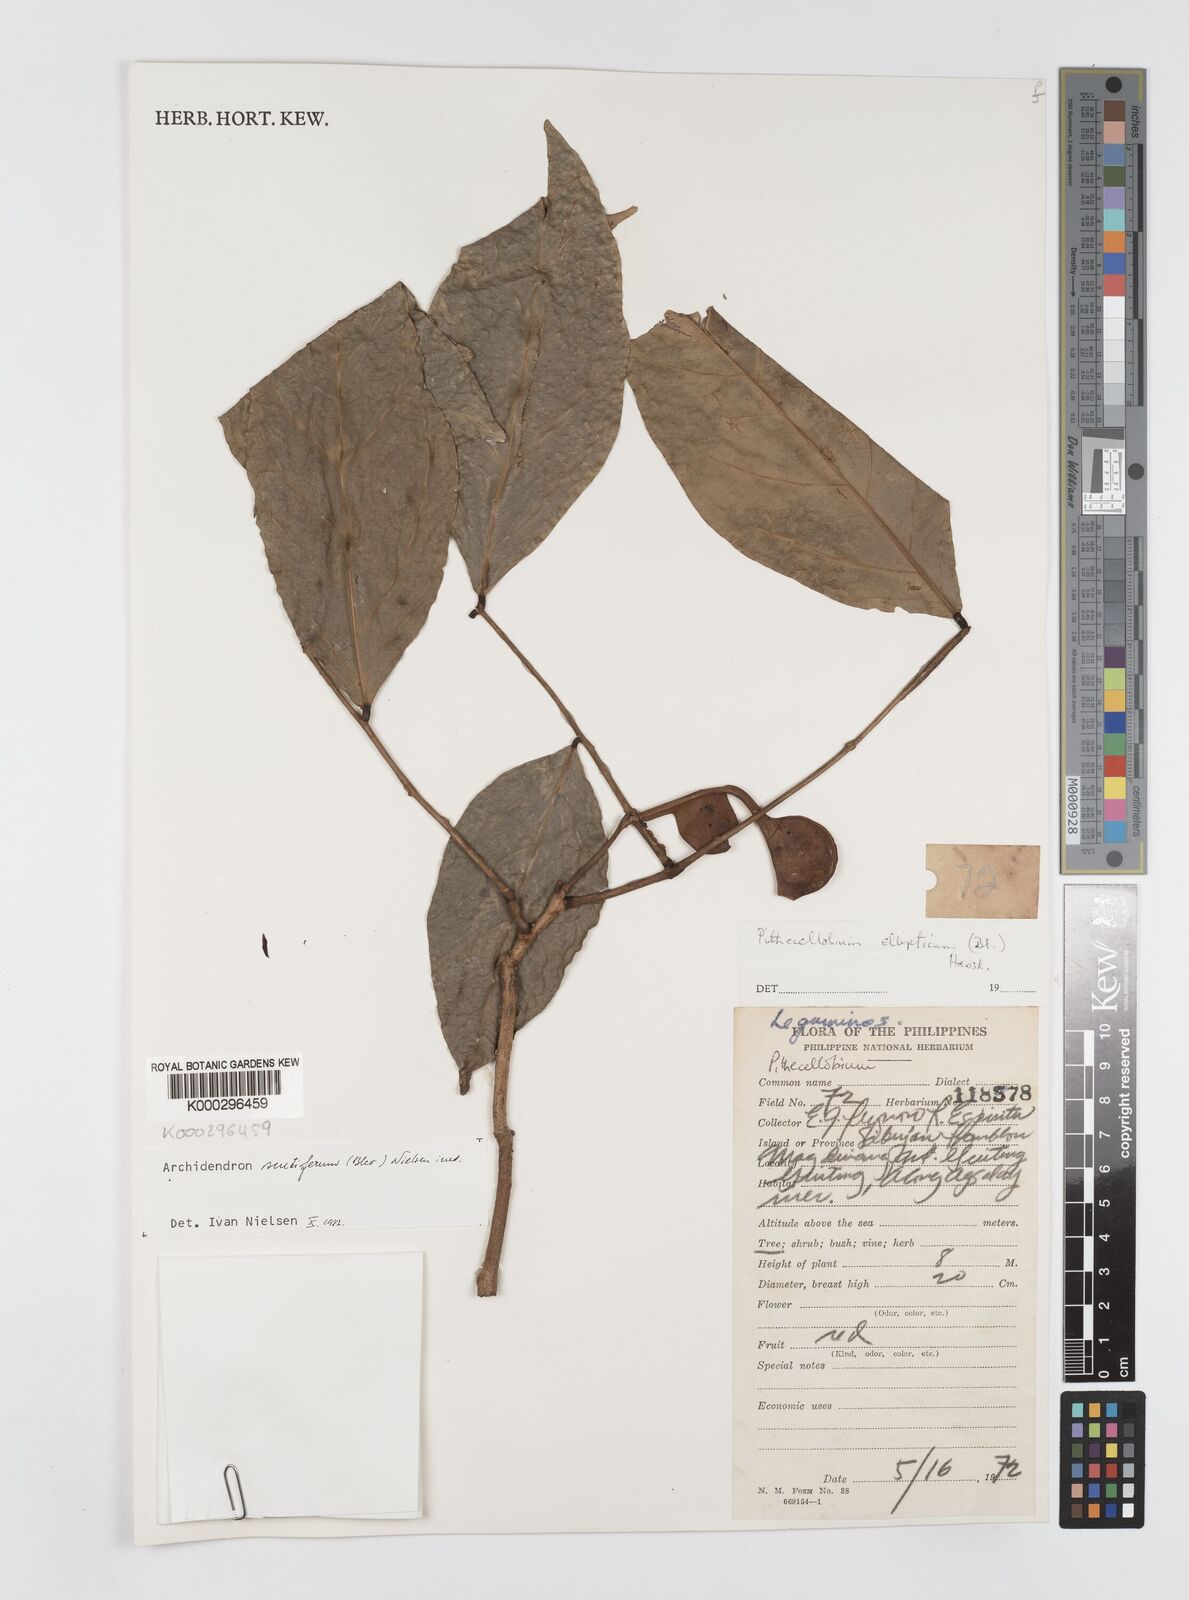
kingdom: Plantae
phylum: Tracheophyta
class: Magnoliopsida
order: Fabales
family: Fabaceae
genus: Archidendron
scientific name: Archidendron scutiferum
